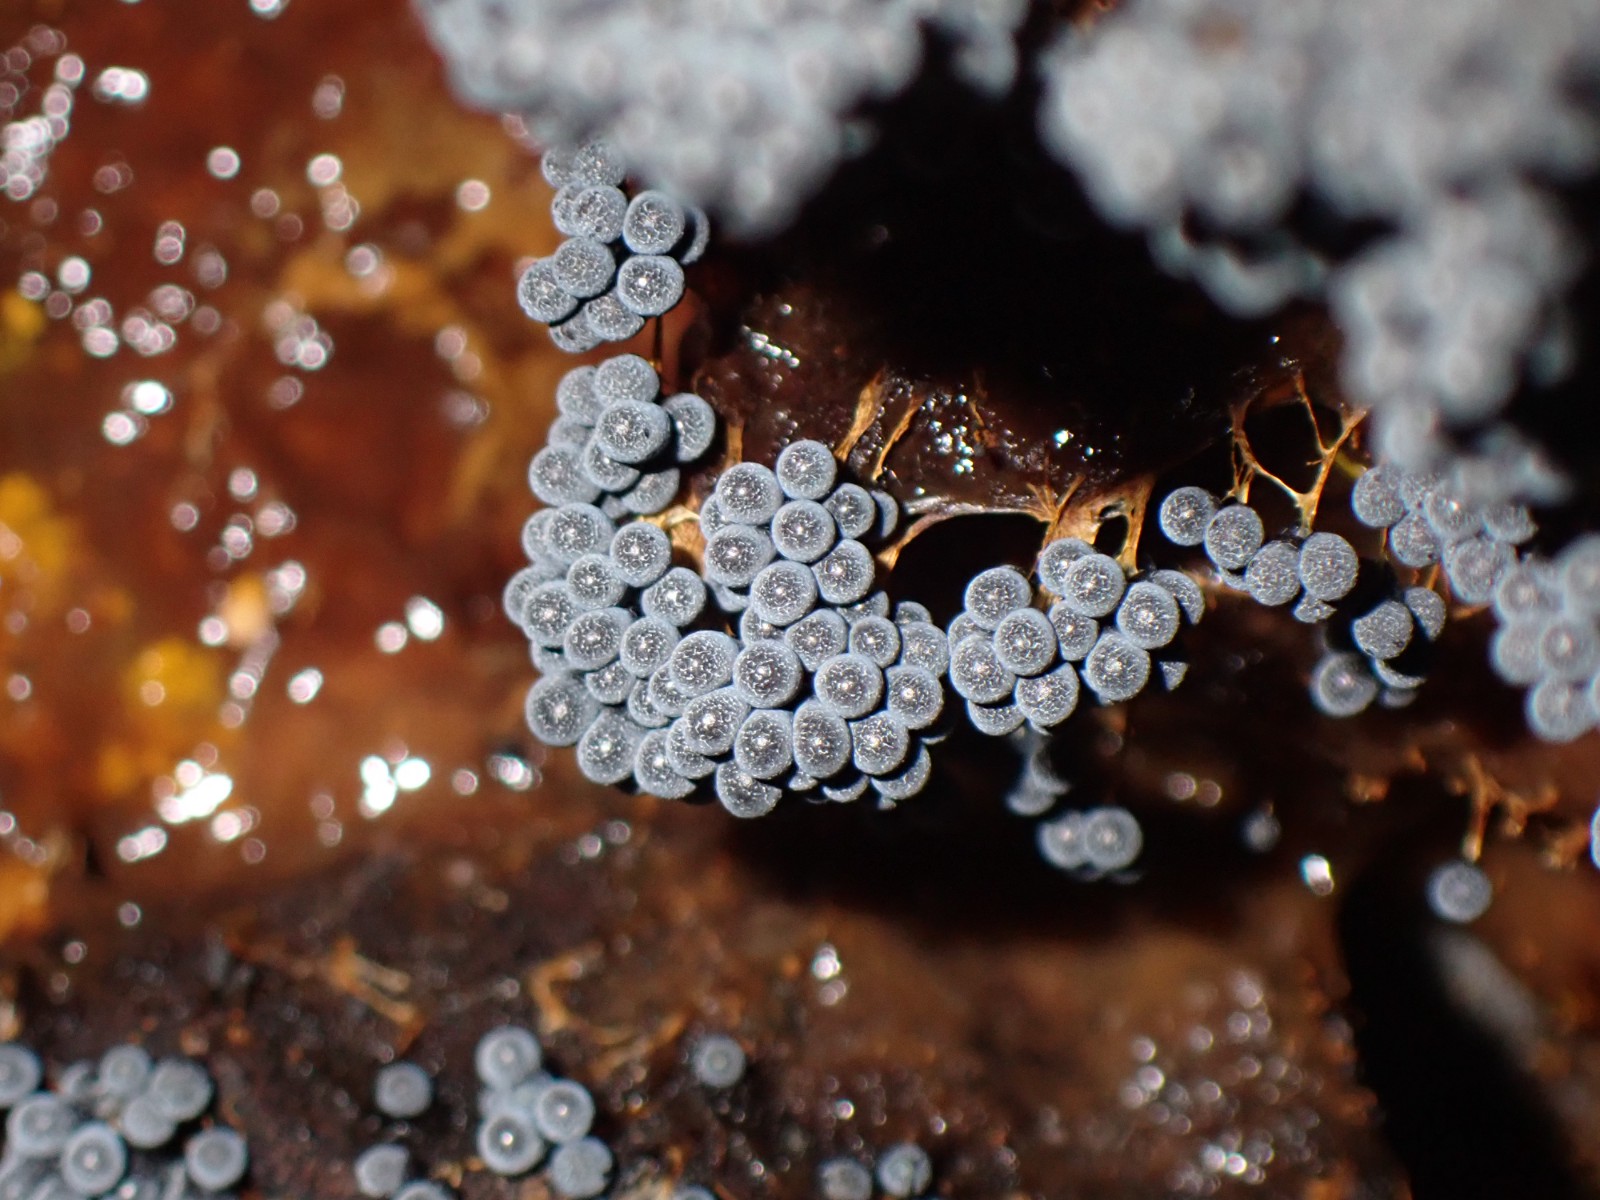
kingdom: Protozoa
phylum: Mycetozoa
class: Myxomycetes
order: Physarales
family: Physaraceae
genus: Badhamia
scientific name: Badhamia utricularis
